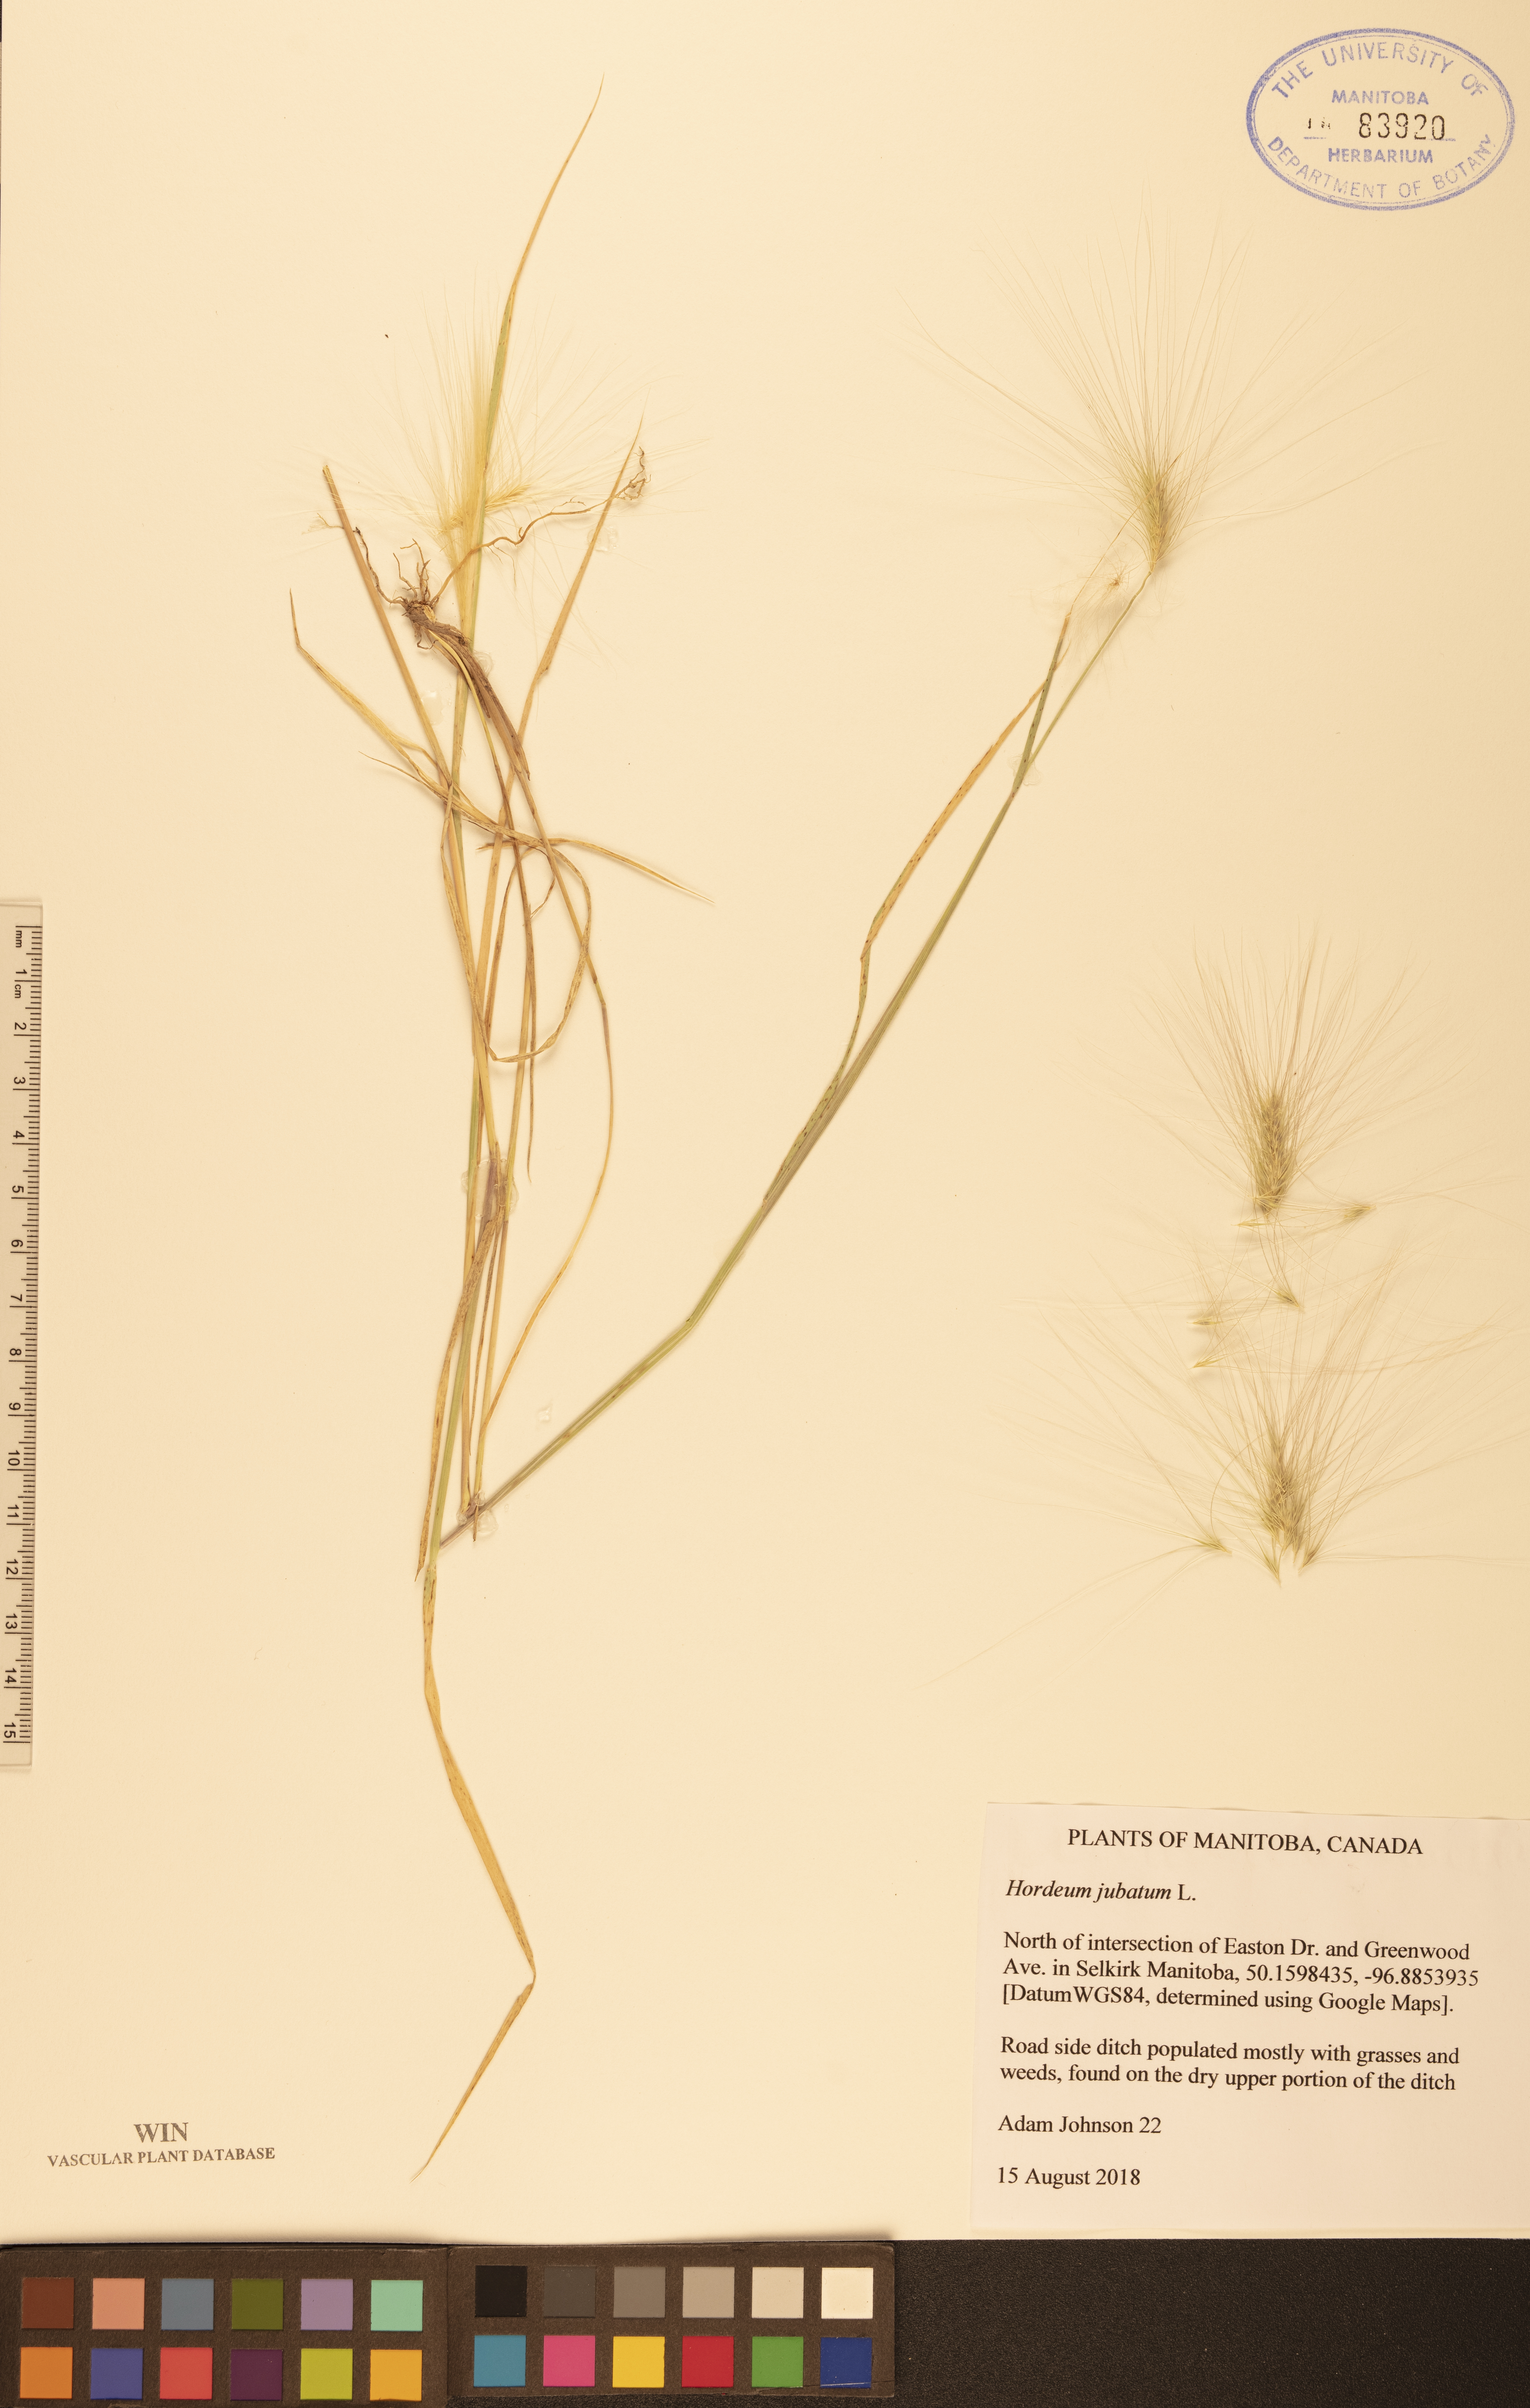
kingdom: Plantae
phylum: Tracheophyta
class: Liliopsida
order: Poales
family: Poaceae
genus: Hordeum
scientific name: Hordeum jubatum
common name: Foxtail barley
